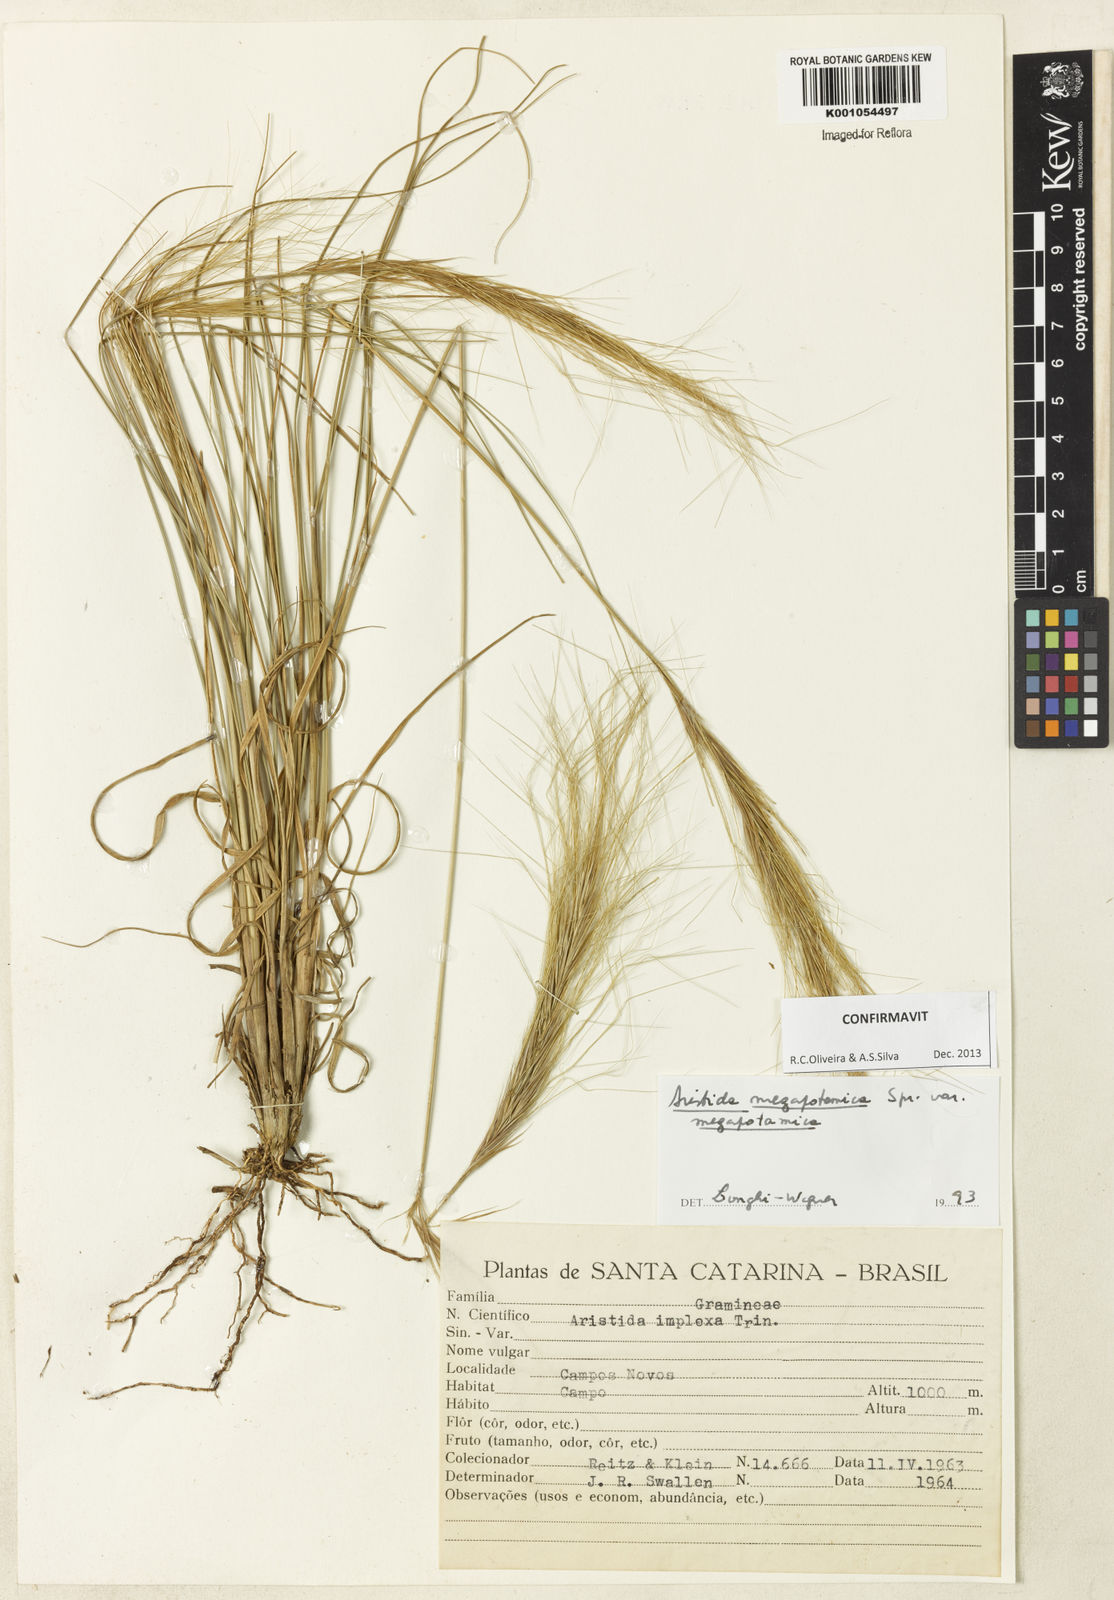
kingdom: Plantae
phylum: Tracheophyta
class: Liliopsida
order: Poales
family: Poaceae
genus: Aristida
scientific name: Aristida megapotamica
